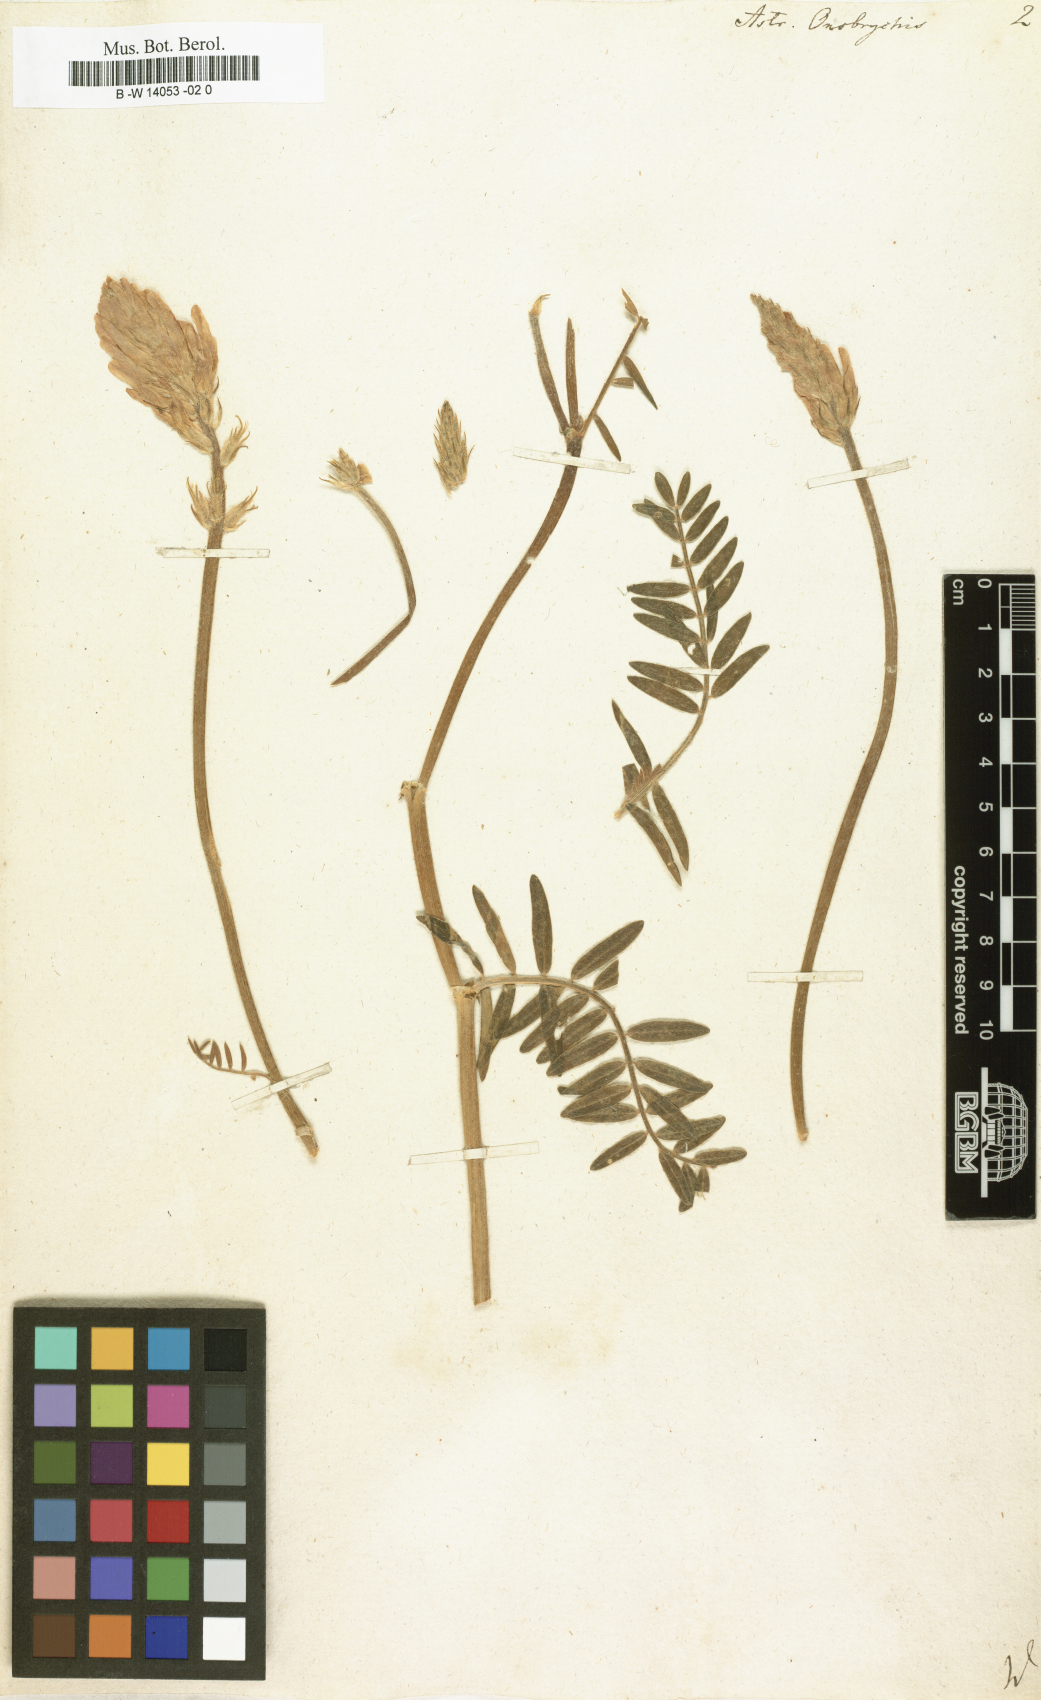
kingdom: Plantae
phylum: Tracheophyta
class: Magnoliopsida
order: Fabales
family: Fabaceae
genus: Astragalus
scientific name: Astragalus onobrychis
